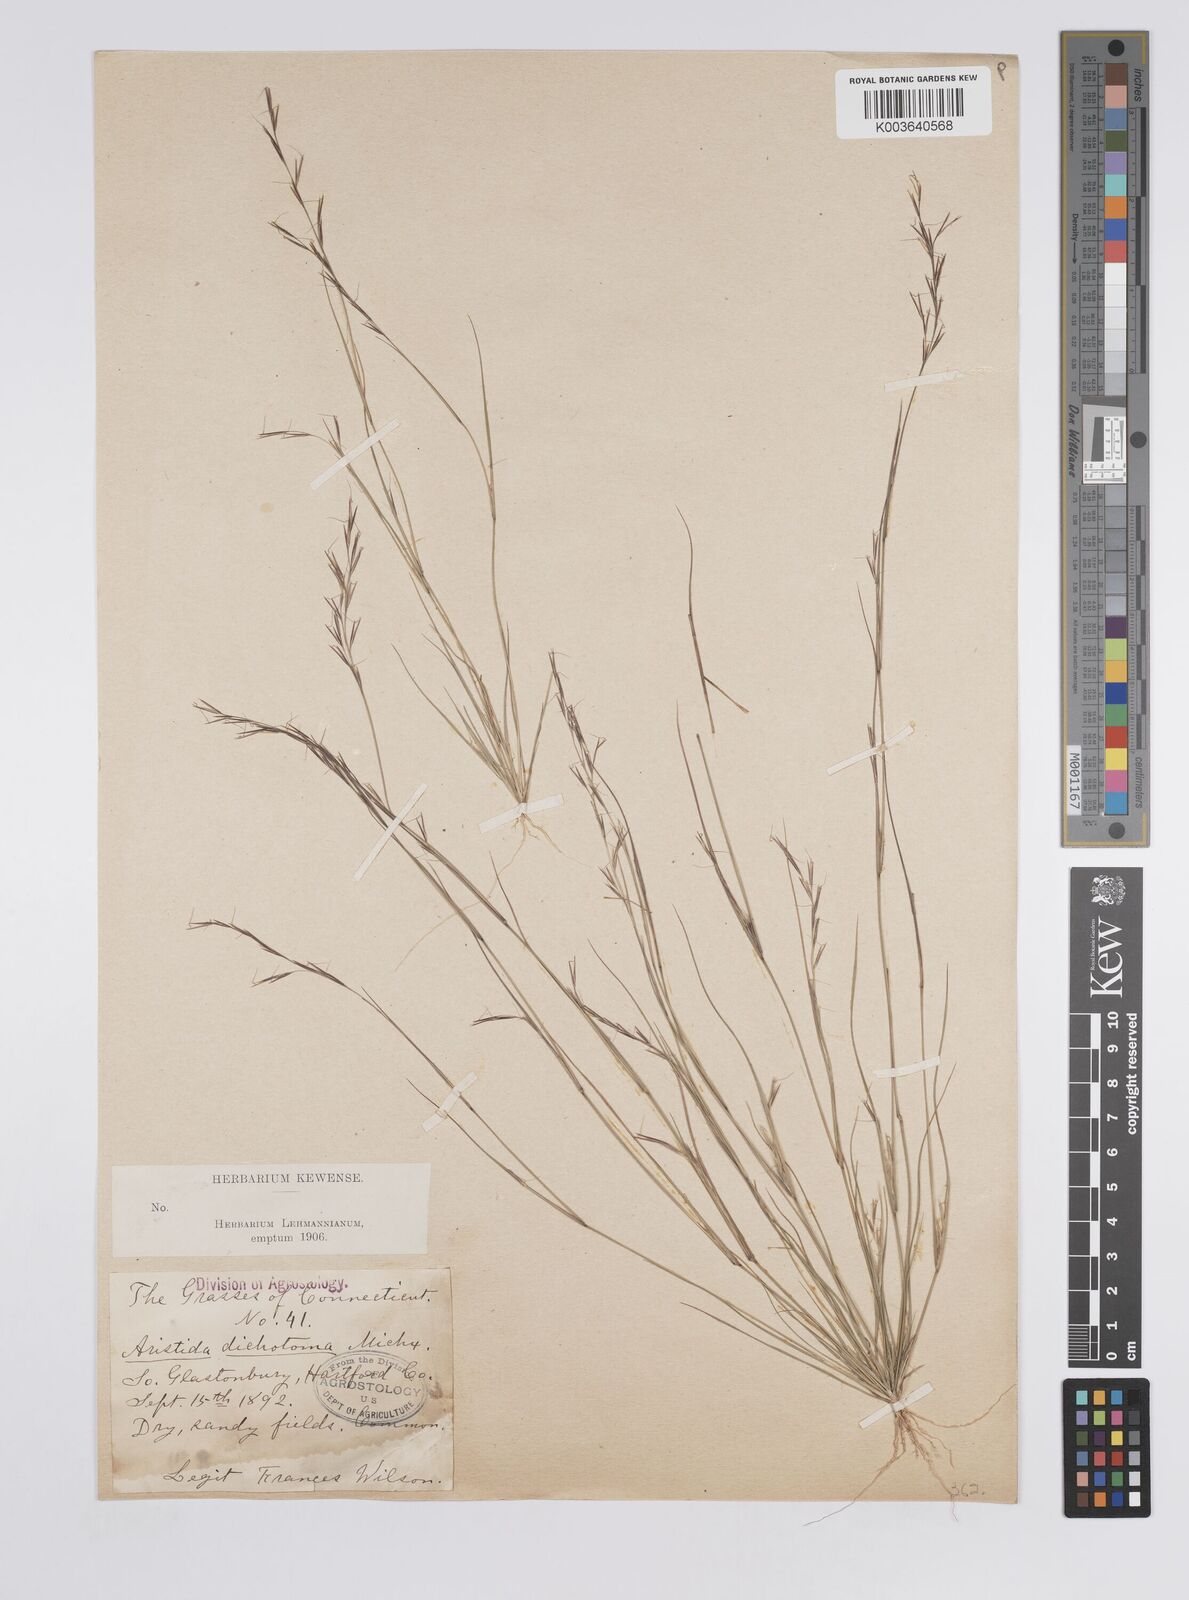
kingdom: Plantae
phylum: Tracheophyta
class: Liliopsida
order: Poales
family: Poaceae
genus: Aristida
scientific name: Aristida dichotoma
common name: Churchmouse three-awn
